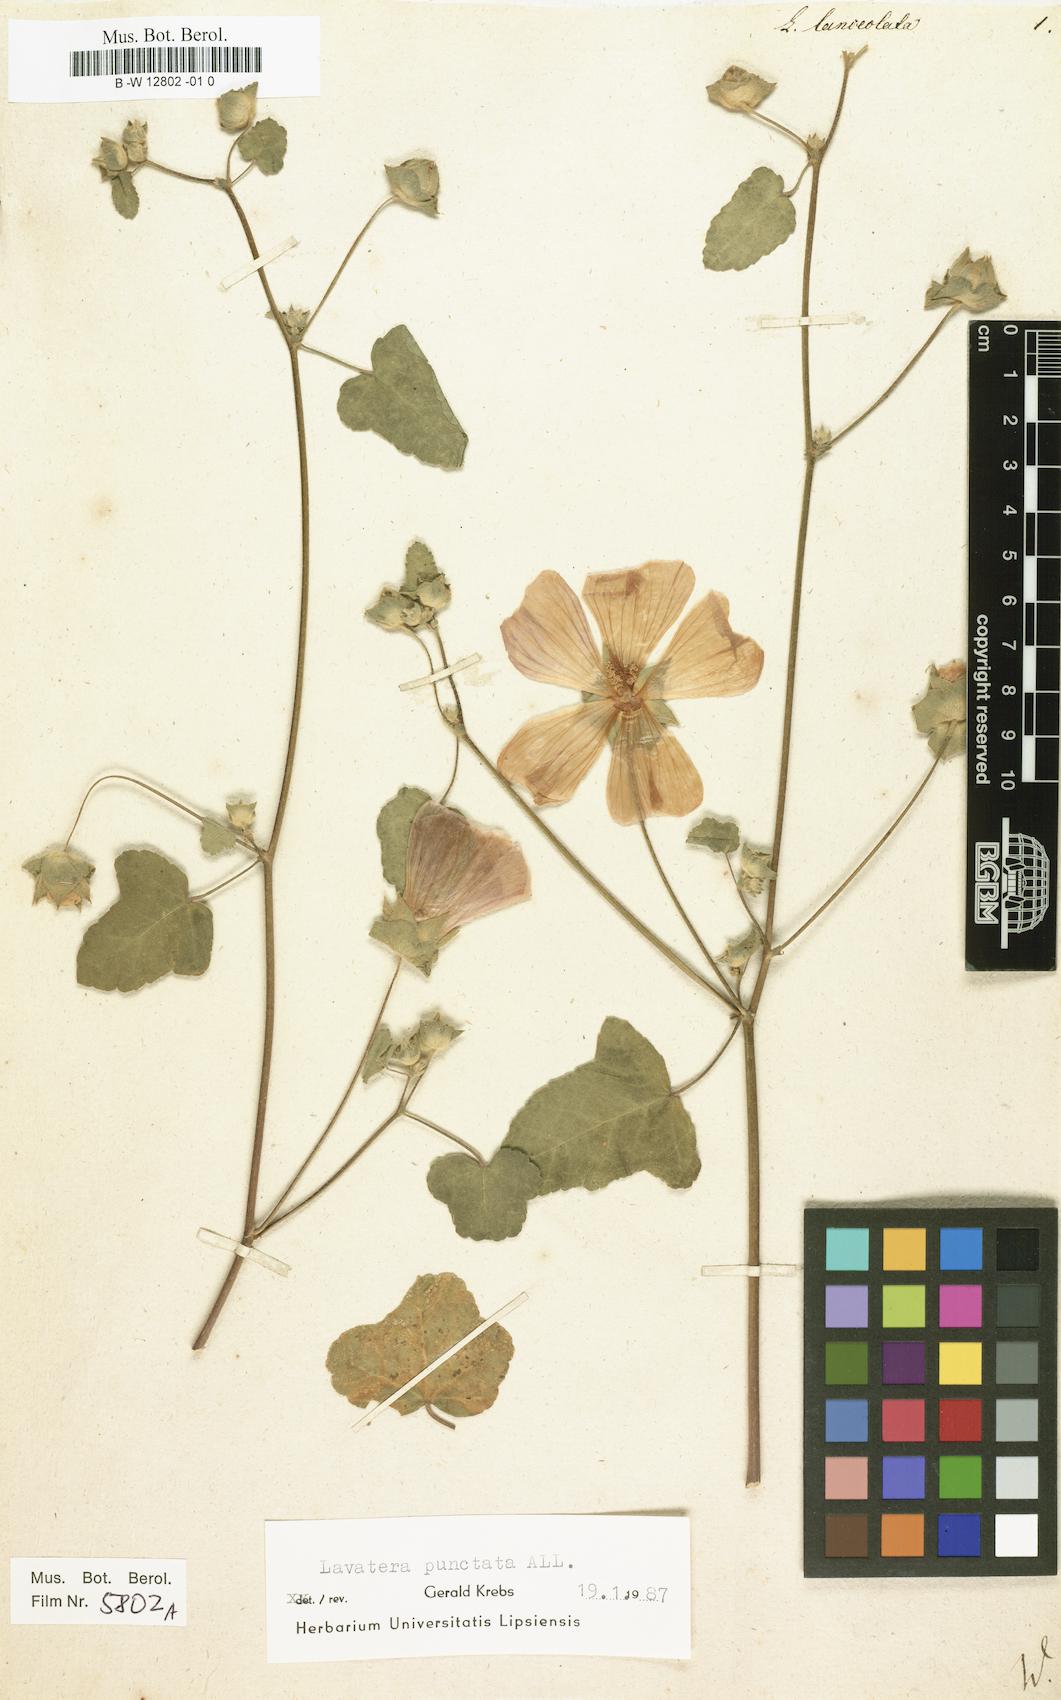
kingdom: Plantae
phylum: Tracheophyta
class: Magnoliopsida
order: Malvales
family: Malvaceae
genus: Malva
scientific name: Malva Lavatera lanceolata
